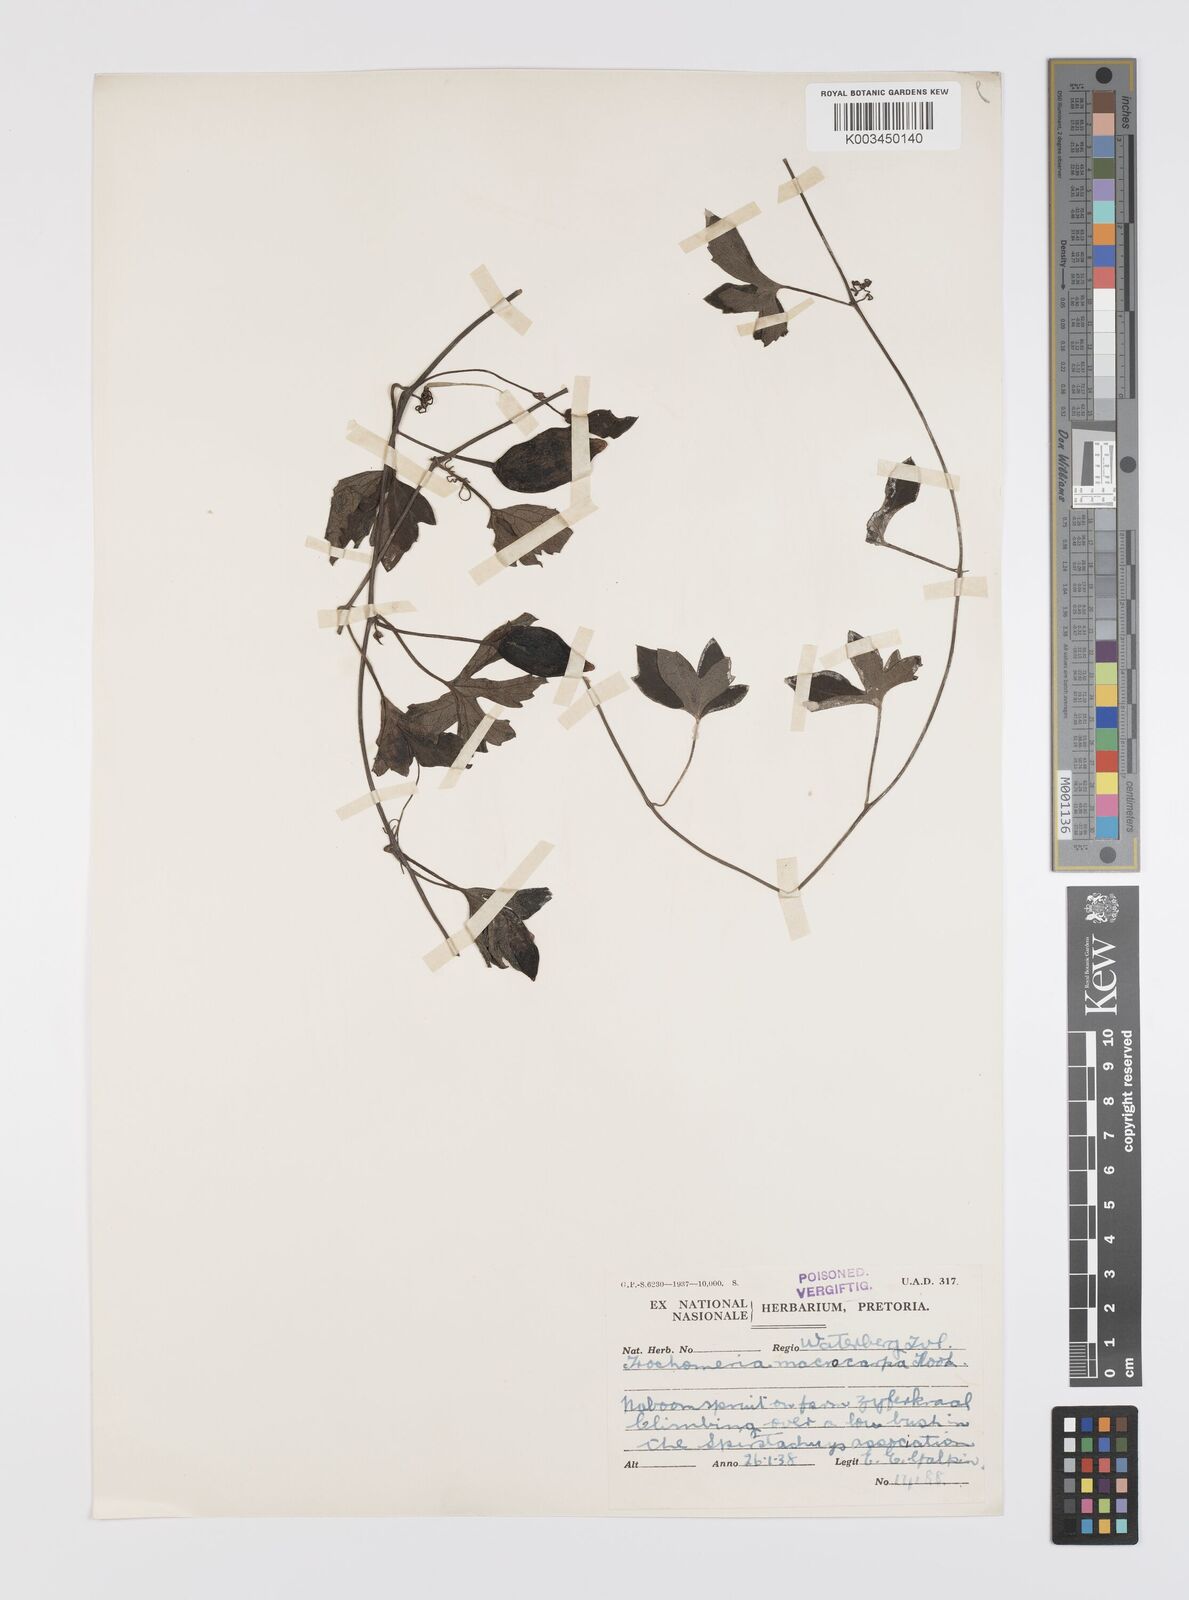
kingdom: Plantae
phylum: Tracheophyta
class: Magnoliopsida
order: Cucurbitales
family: Cucurbitaceae
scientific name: Cucurbitaceae
